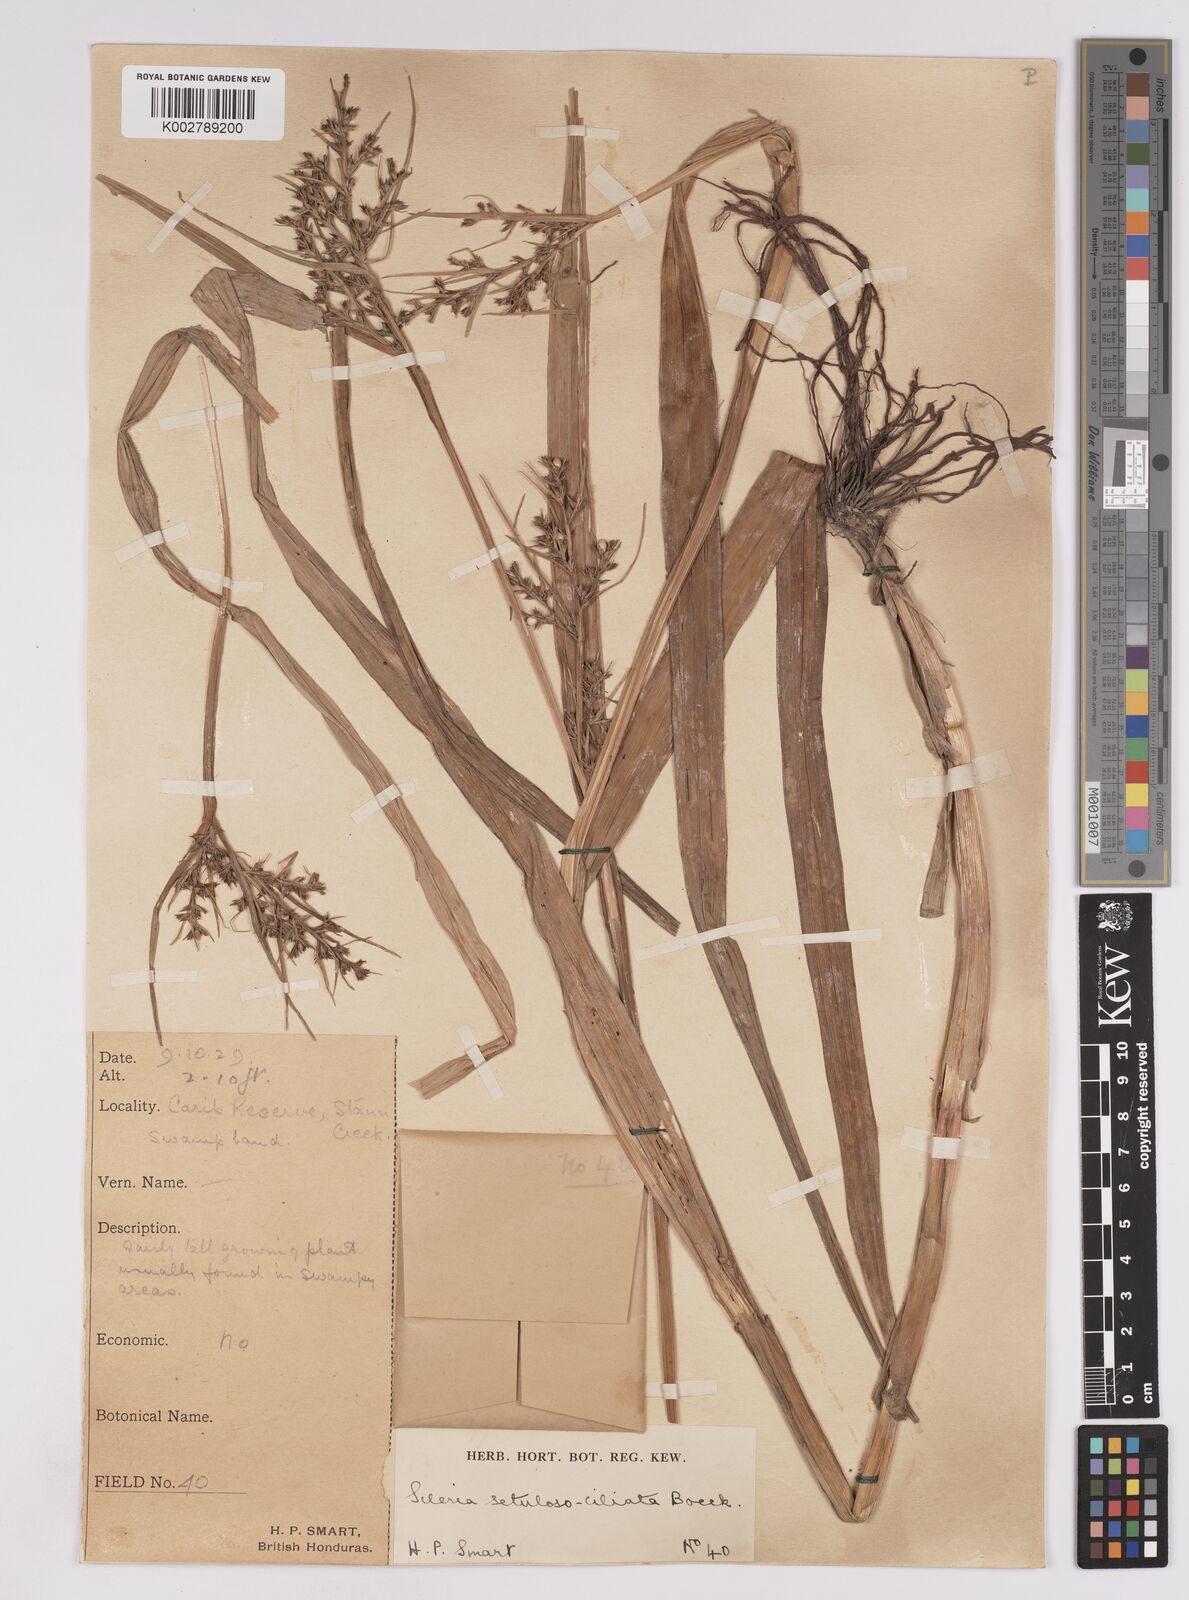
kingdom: Plantae
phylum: Tracheophyta
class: Liliopsida
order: Poales
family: Cyperaceae
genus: Scleria
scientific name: Scleria dregeana
